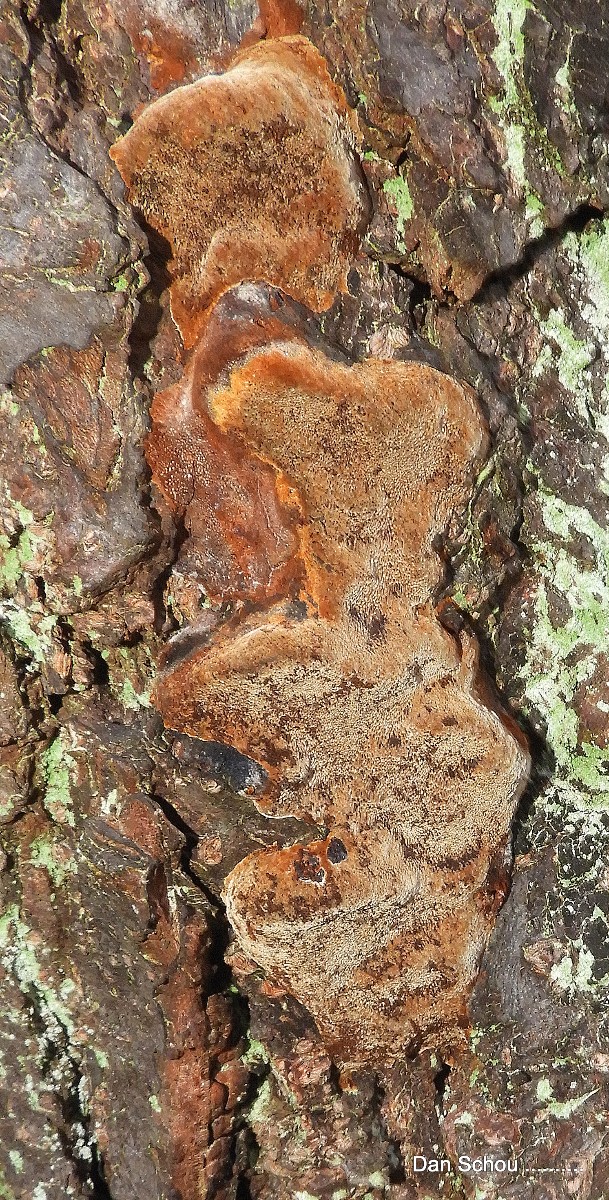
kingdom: Fungi
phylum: Basidiomycota
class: Agaricomycetes
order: Hymenochaetales
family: Hymenochaetaceae
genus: Phellinus
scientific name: Phellinus pomaceus
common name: blomme-ildporesvamp
